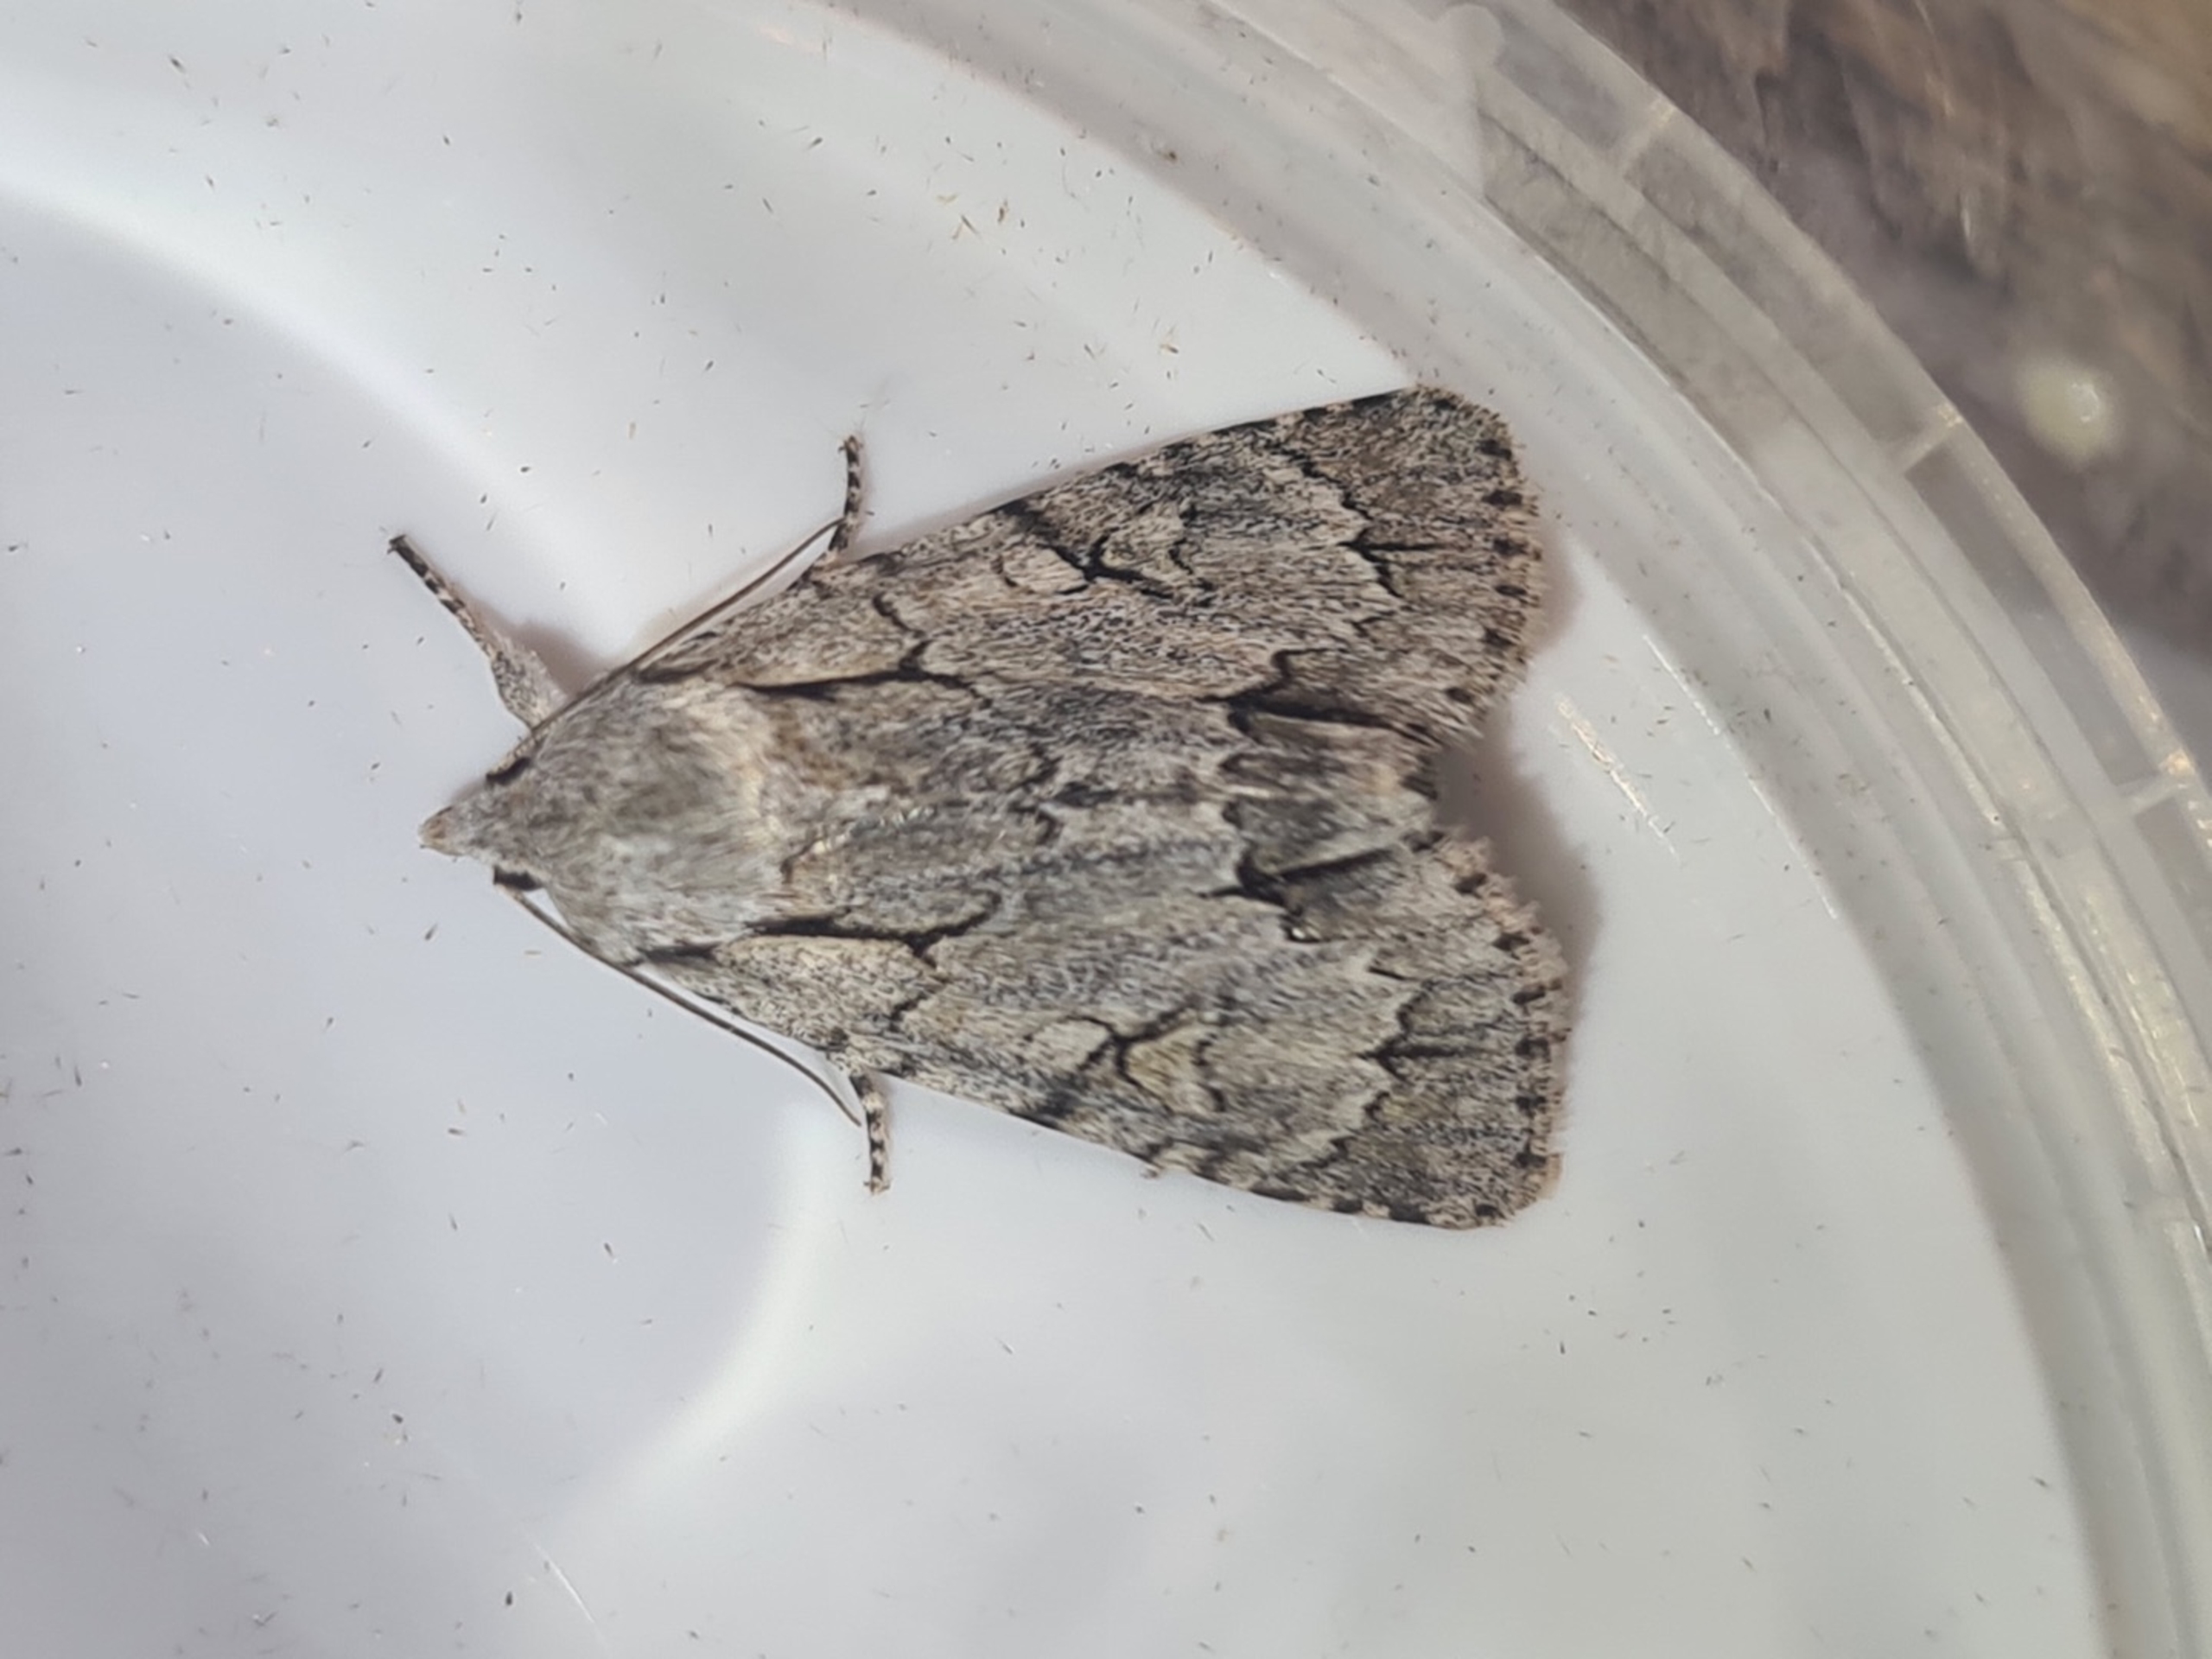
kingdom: Animalia
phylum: Arthropoda
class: Insecta
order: Lepidoptera
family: Noctuidae
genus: Acronicta
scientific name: Acronicta psi
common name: Psi-ugle
